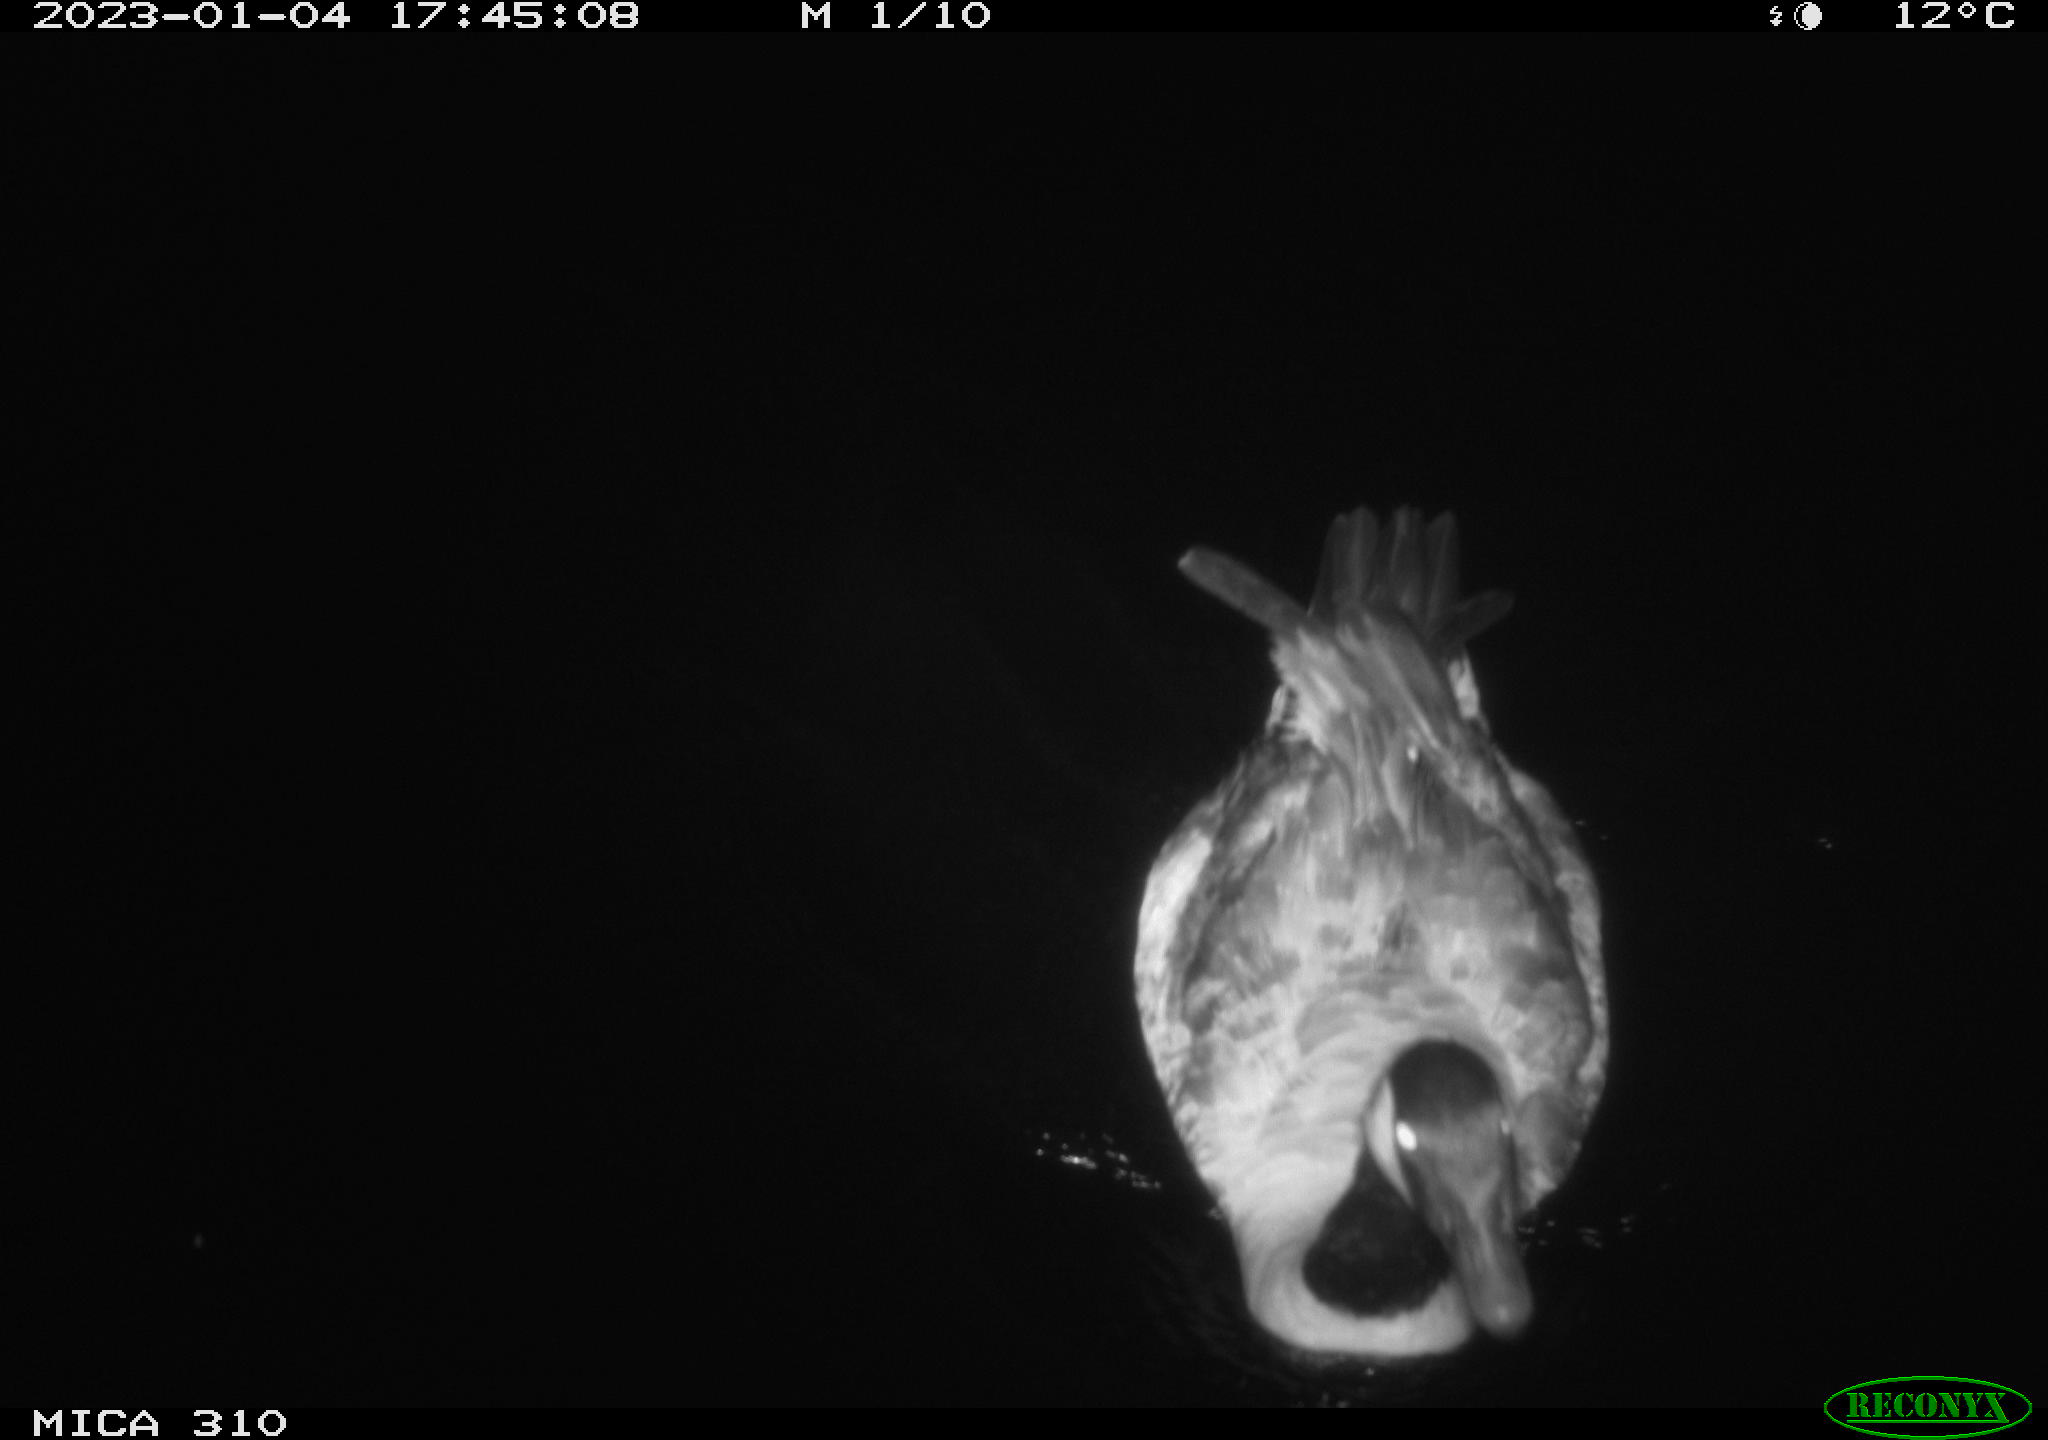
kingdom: Animalia
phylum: Chordata
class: Aves
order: Anseriformes
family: Anatidae
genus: Anas
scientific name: Anas
